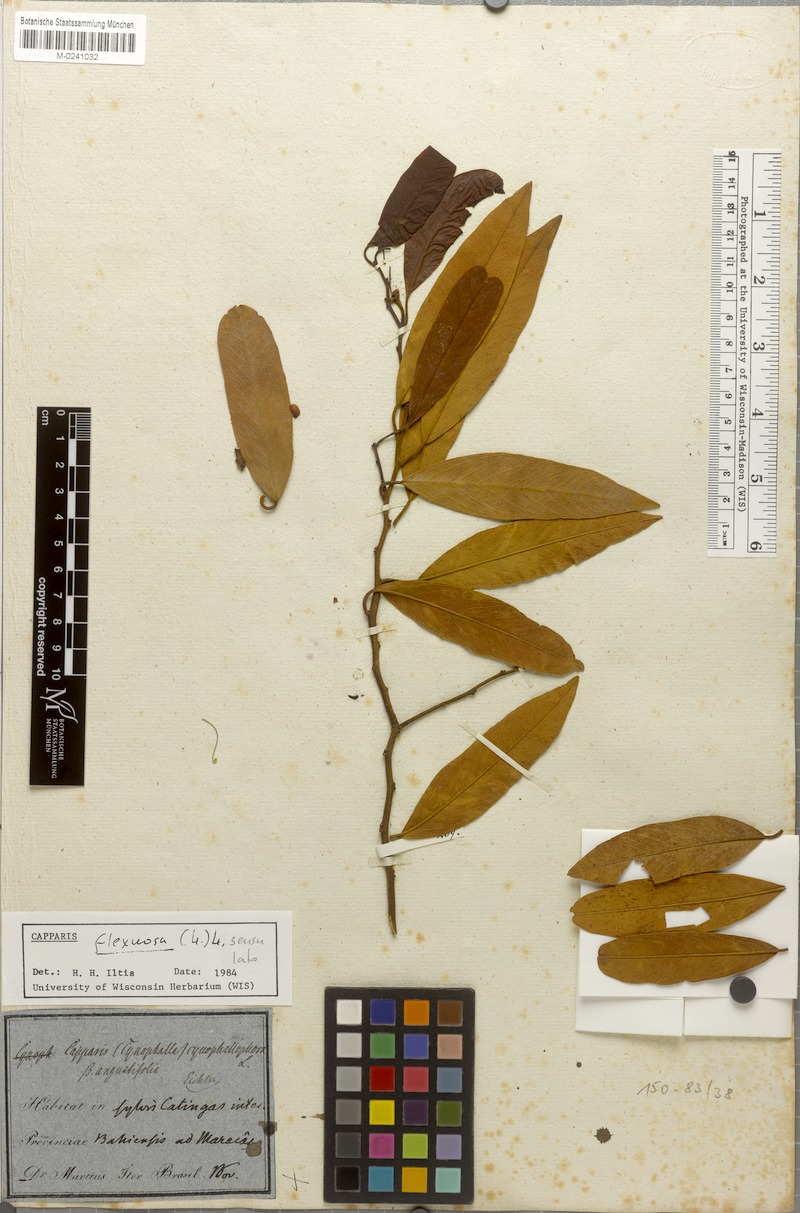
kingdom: Plantae
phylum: Tracheophyta
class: Magnoliopsida
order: Brassicales
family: Capparaceae
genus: Cynophalla
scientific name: Cynophalla flexuosa
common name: Capertree
